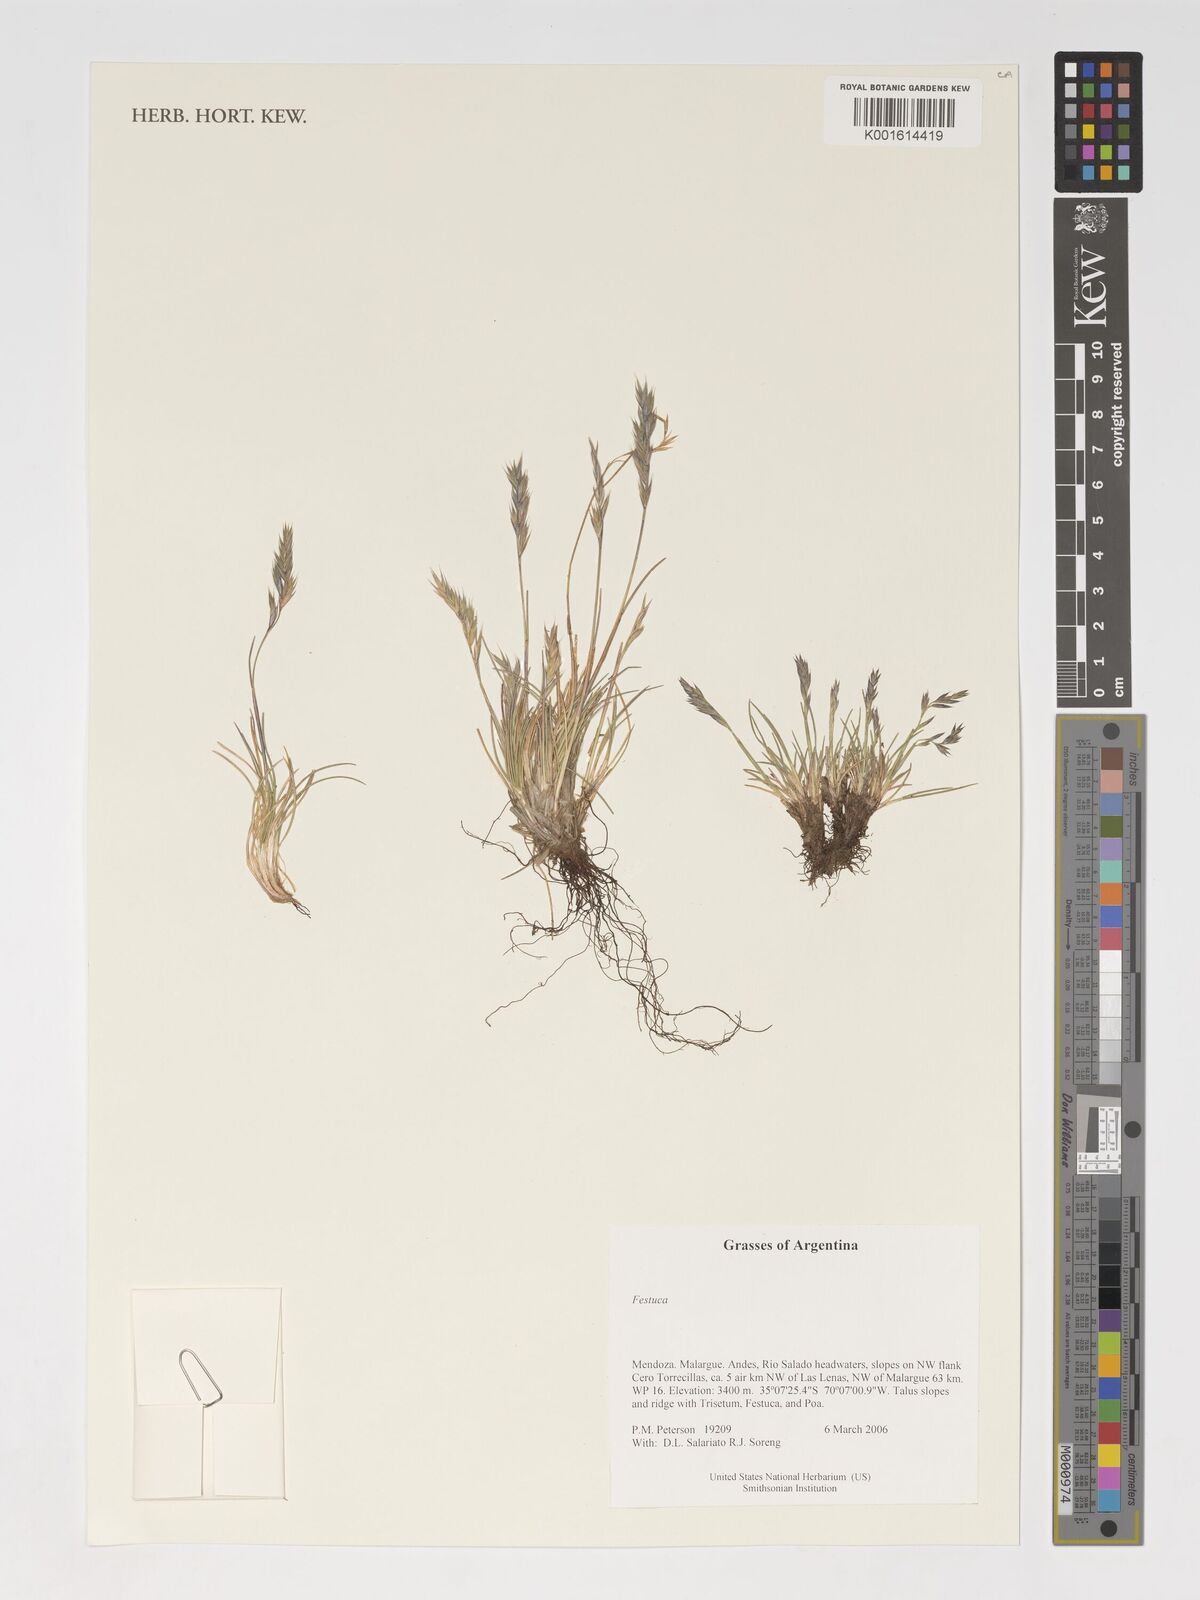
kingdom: Plantae
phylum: Tracheophyta
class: Liliopsida
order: Poales
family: Poaceae
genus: Festuca
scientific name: Festuca
